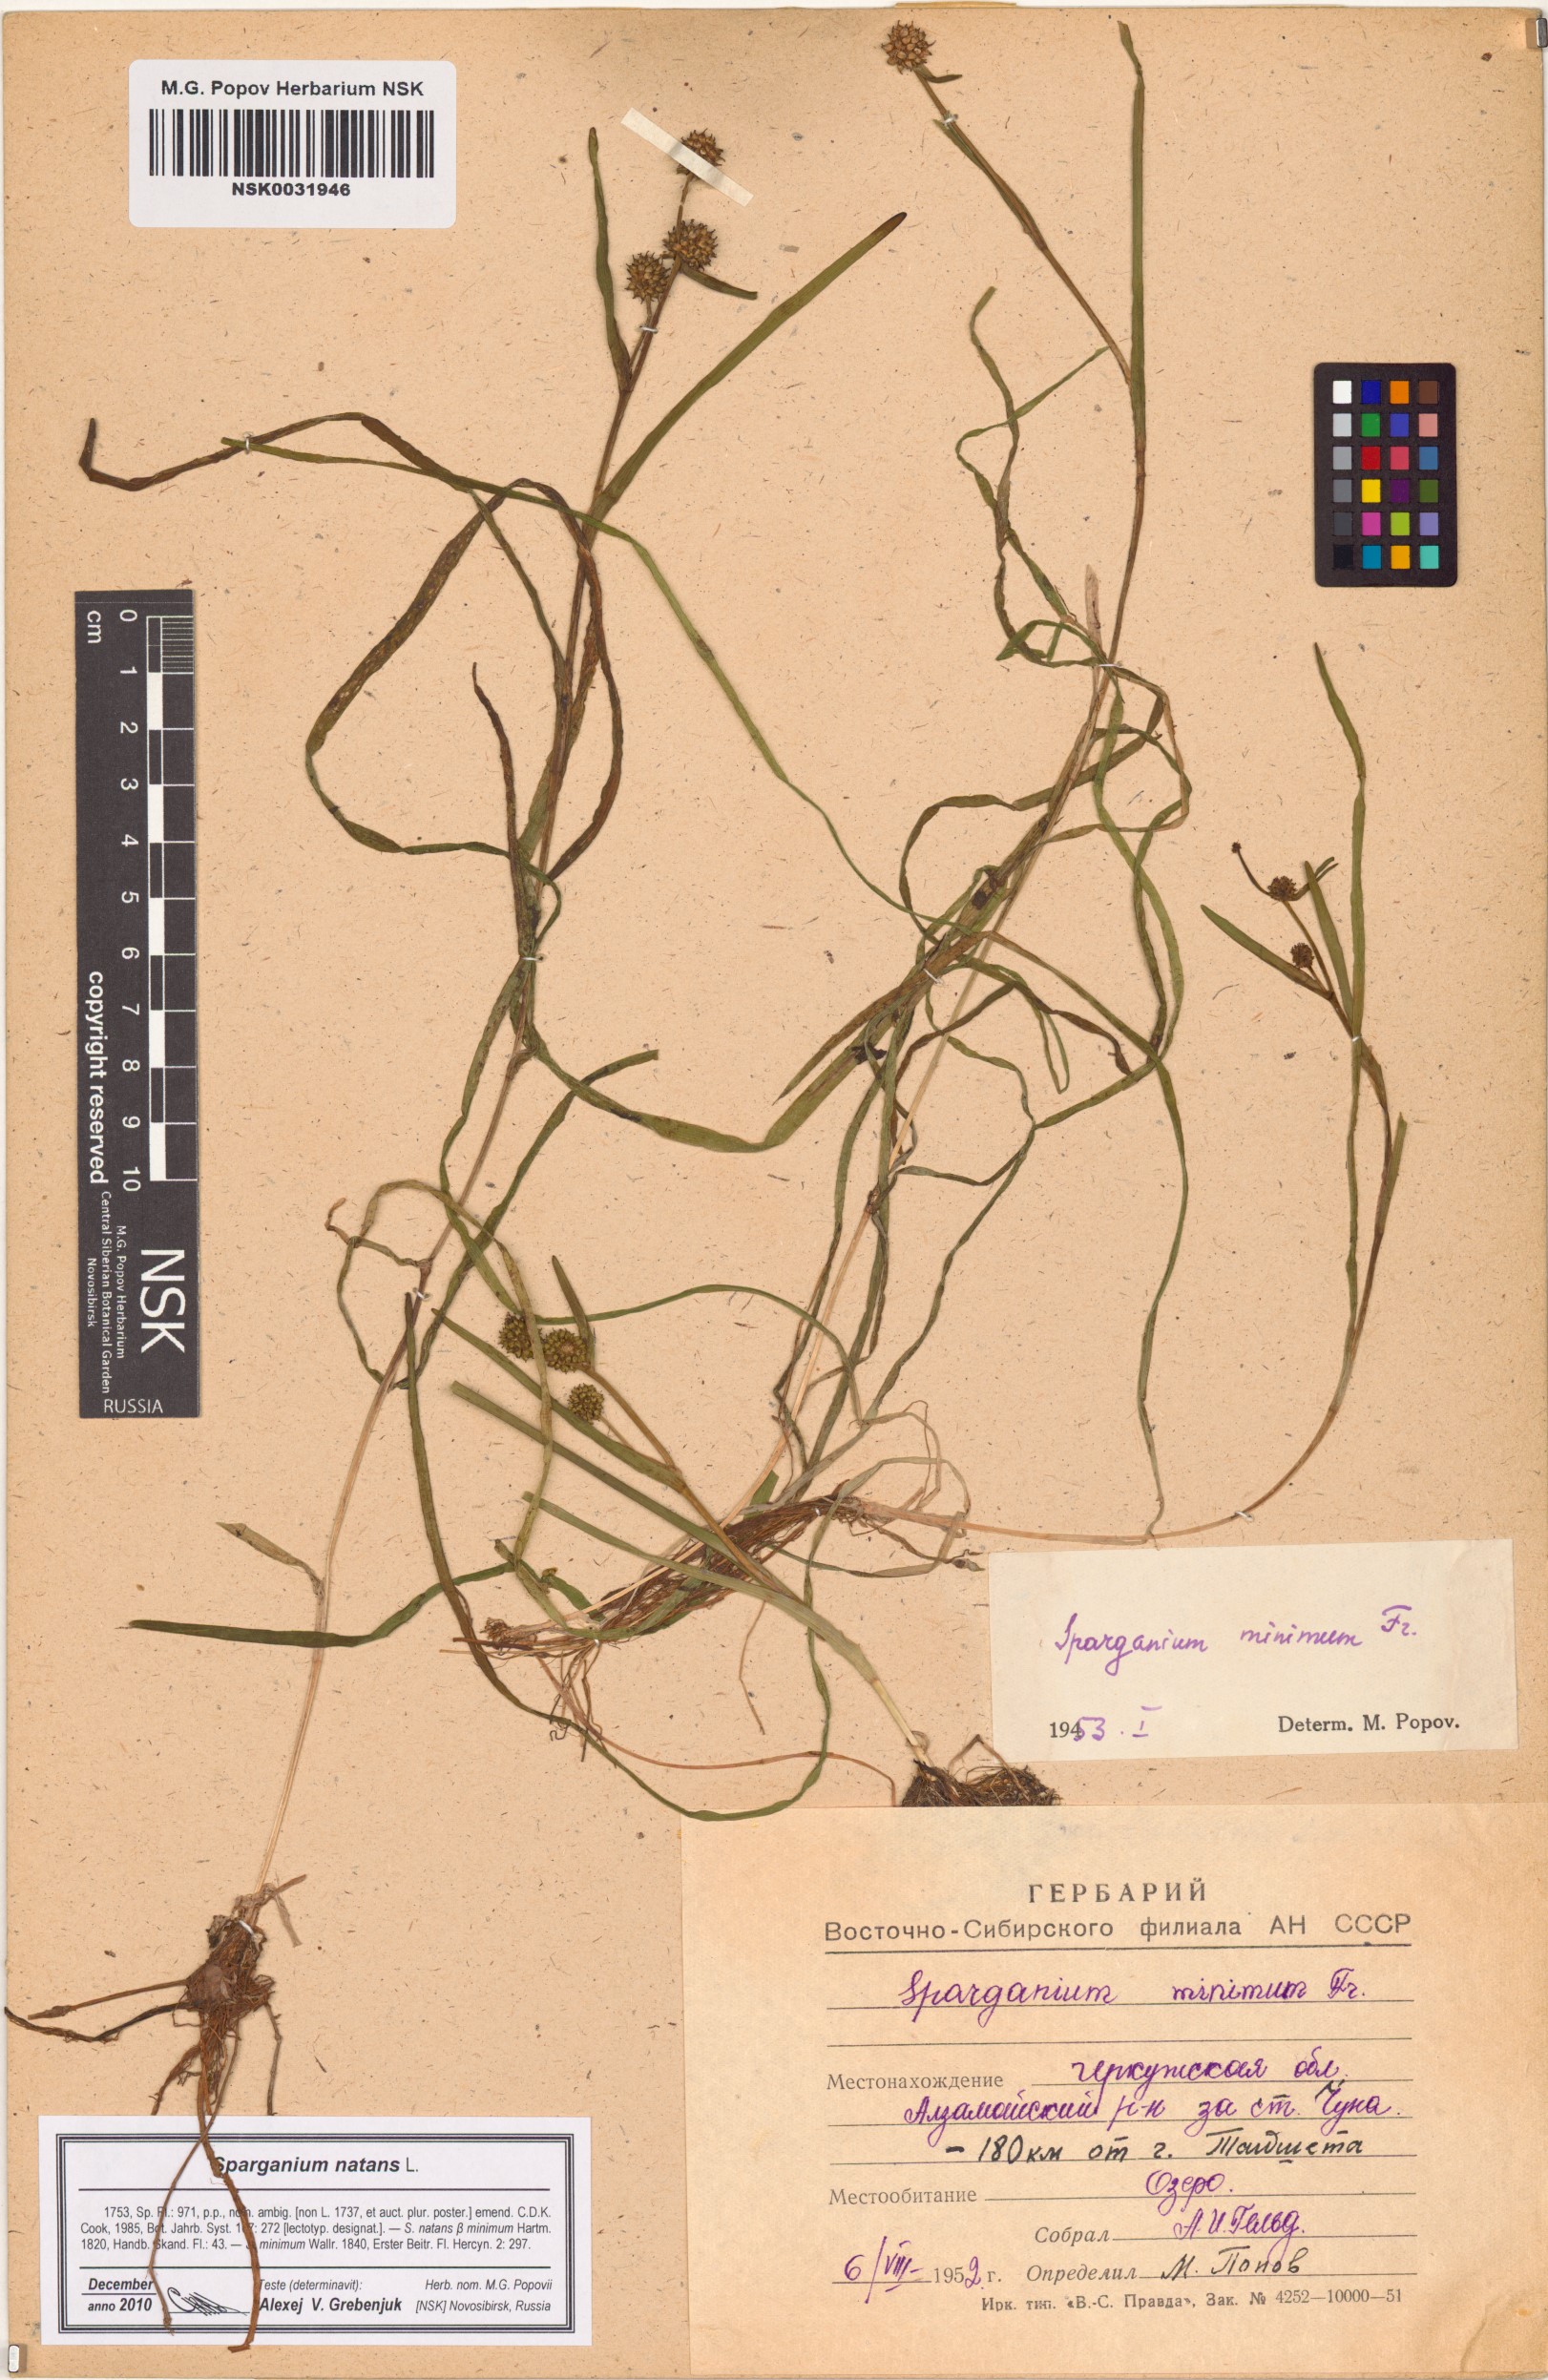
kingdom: Plantae
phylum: Tracheophyta
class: Liliopsida
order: Poales
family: Typhaceae
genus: Sparganium
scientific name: Sparganium natans
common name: Least bur-reed
